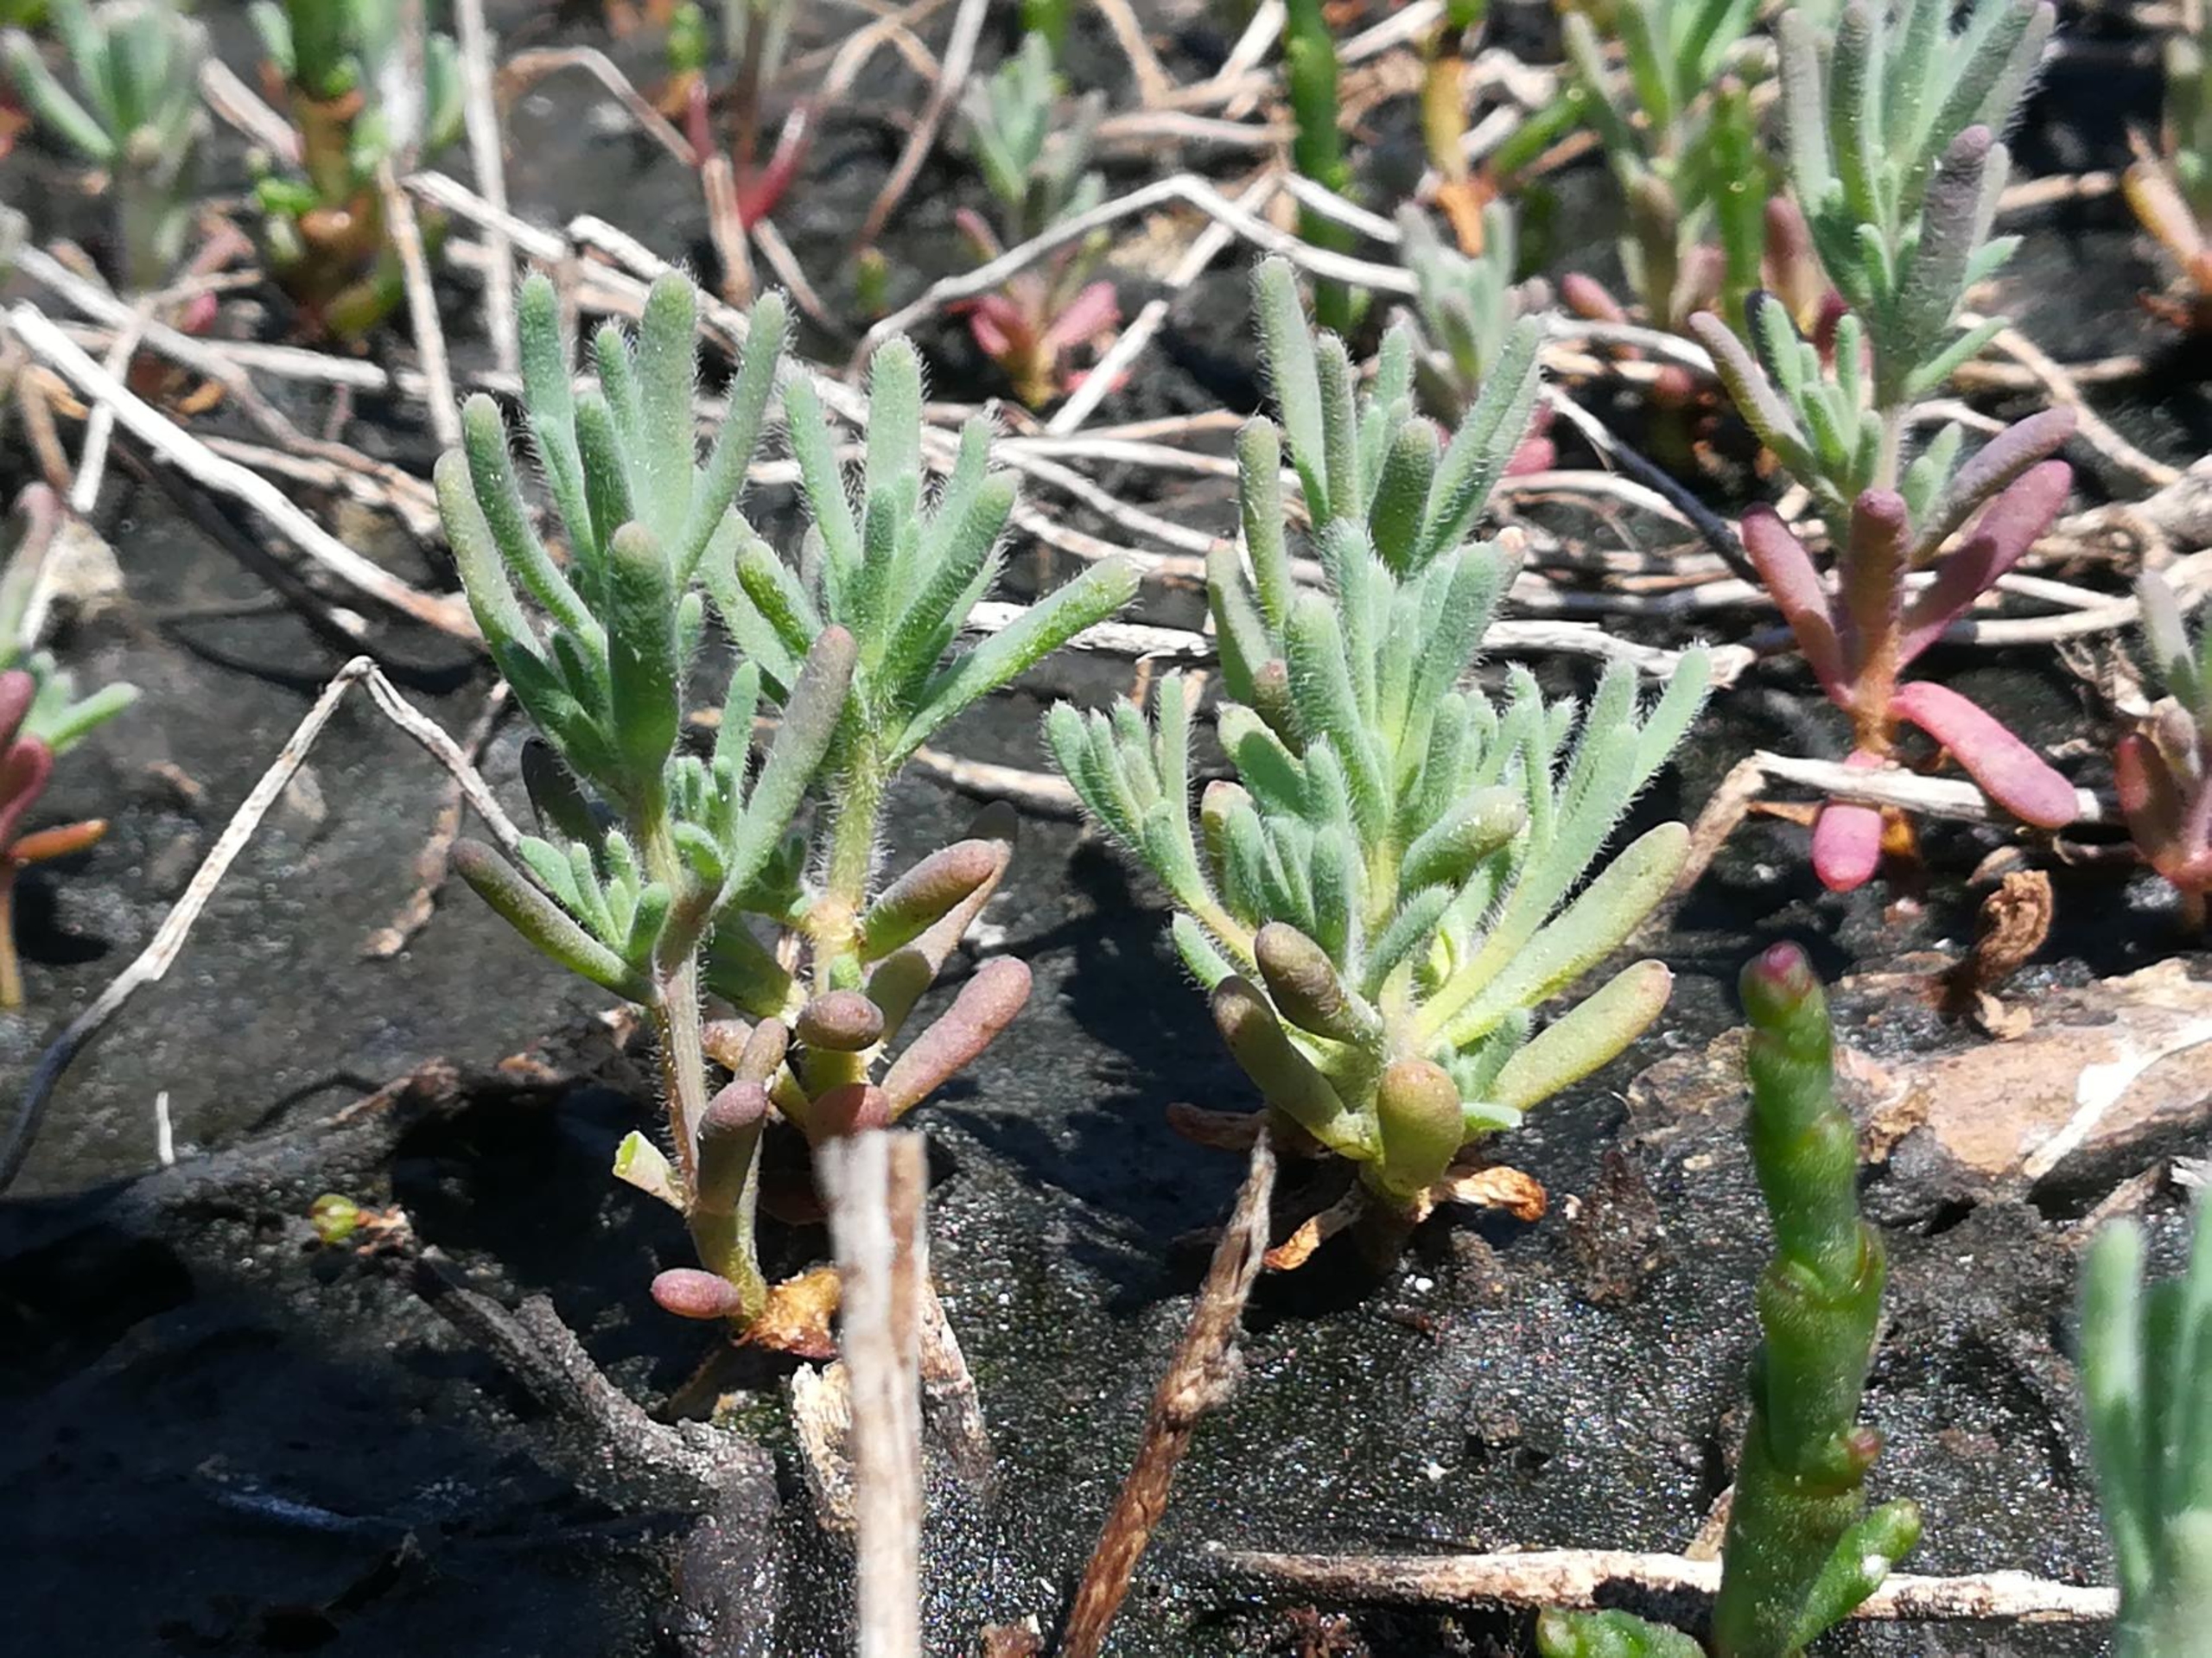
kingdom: Plantae
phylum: Tracheophyta
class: Magnoliopsida
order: Caryophyllales
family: Amaranthaceae
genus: Spirobassia
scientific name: Spirobassia hirsuta
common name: Tangurt
